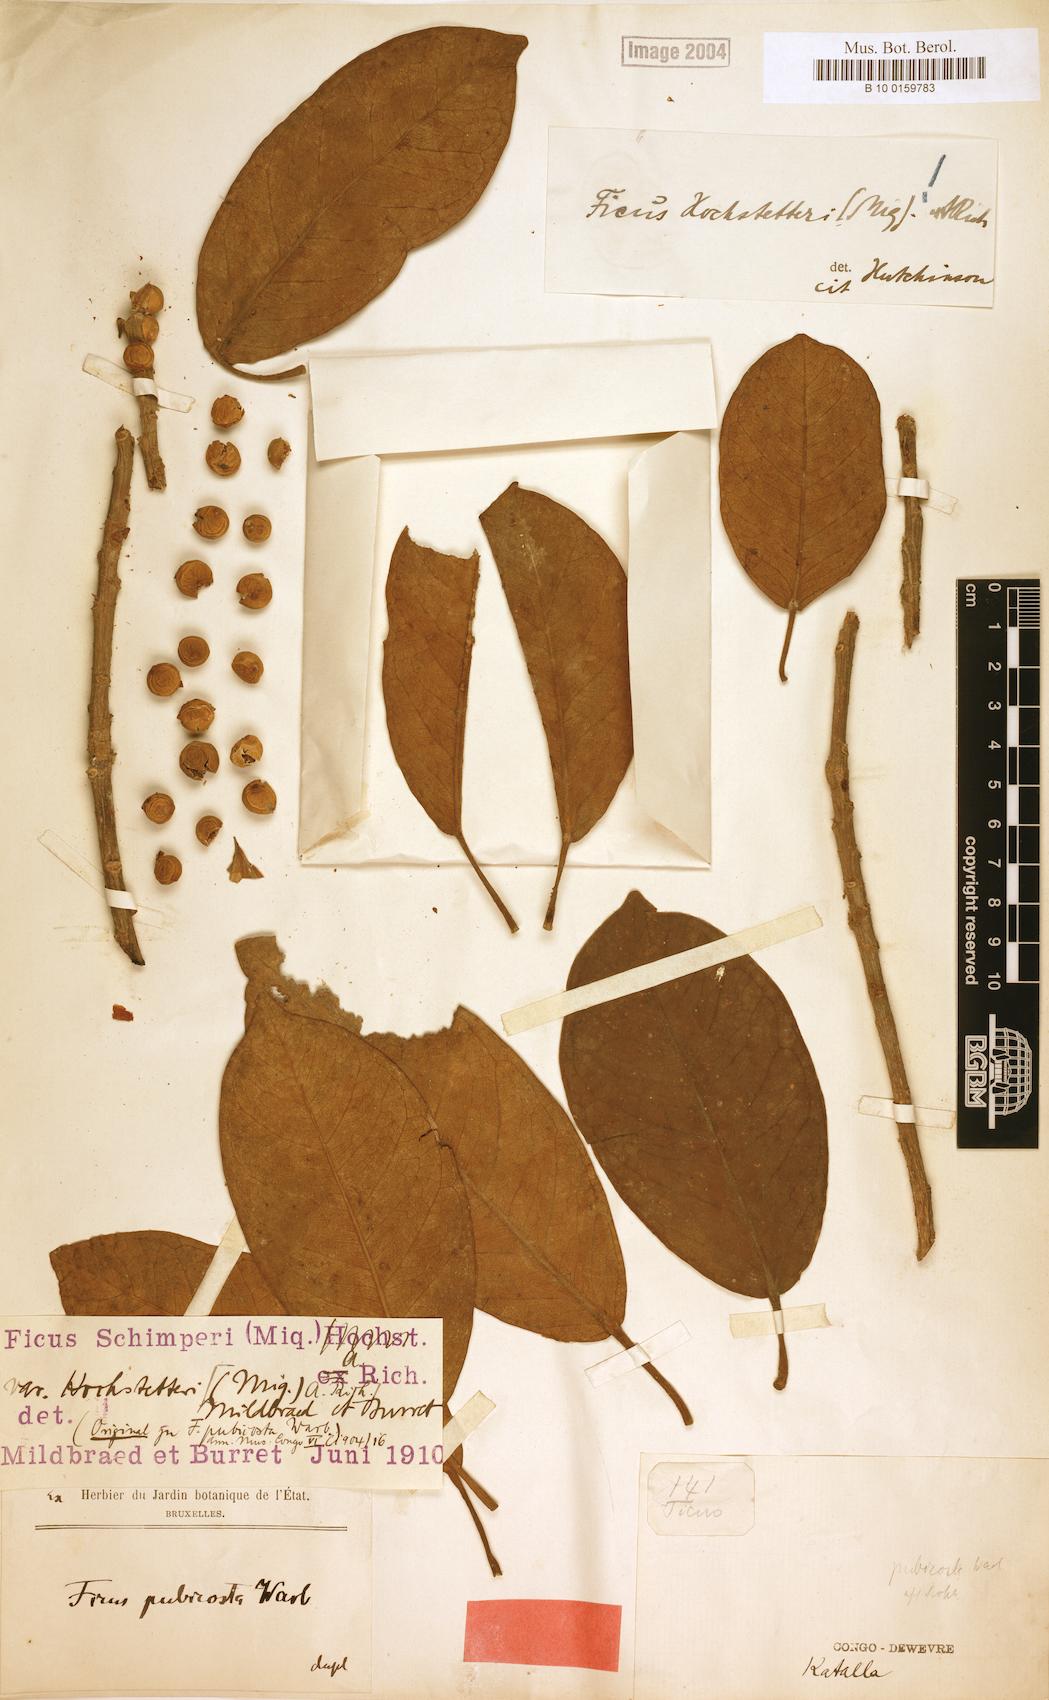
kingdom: Plantae
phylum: Tracheophyta
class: Magnoliopsida
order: Rosales
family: Moraceae
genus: Ficus
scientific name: Ficus thonningii
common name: Fig
